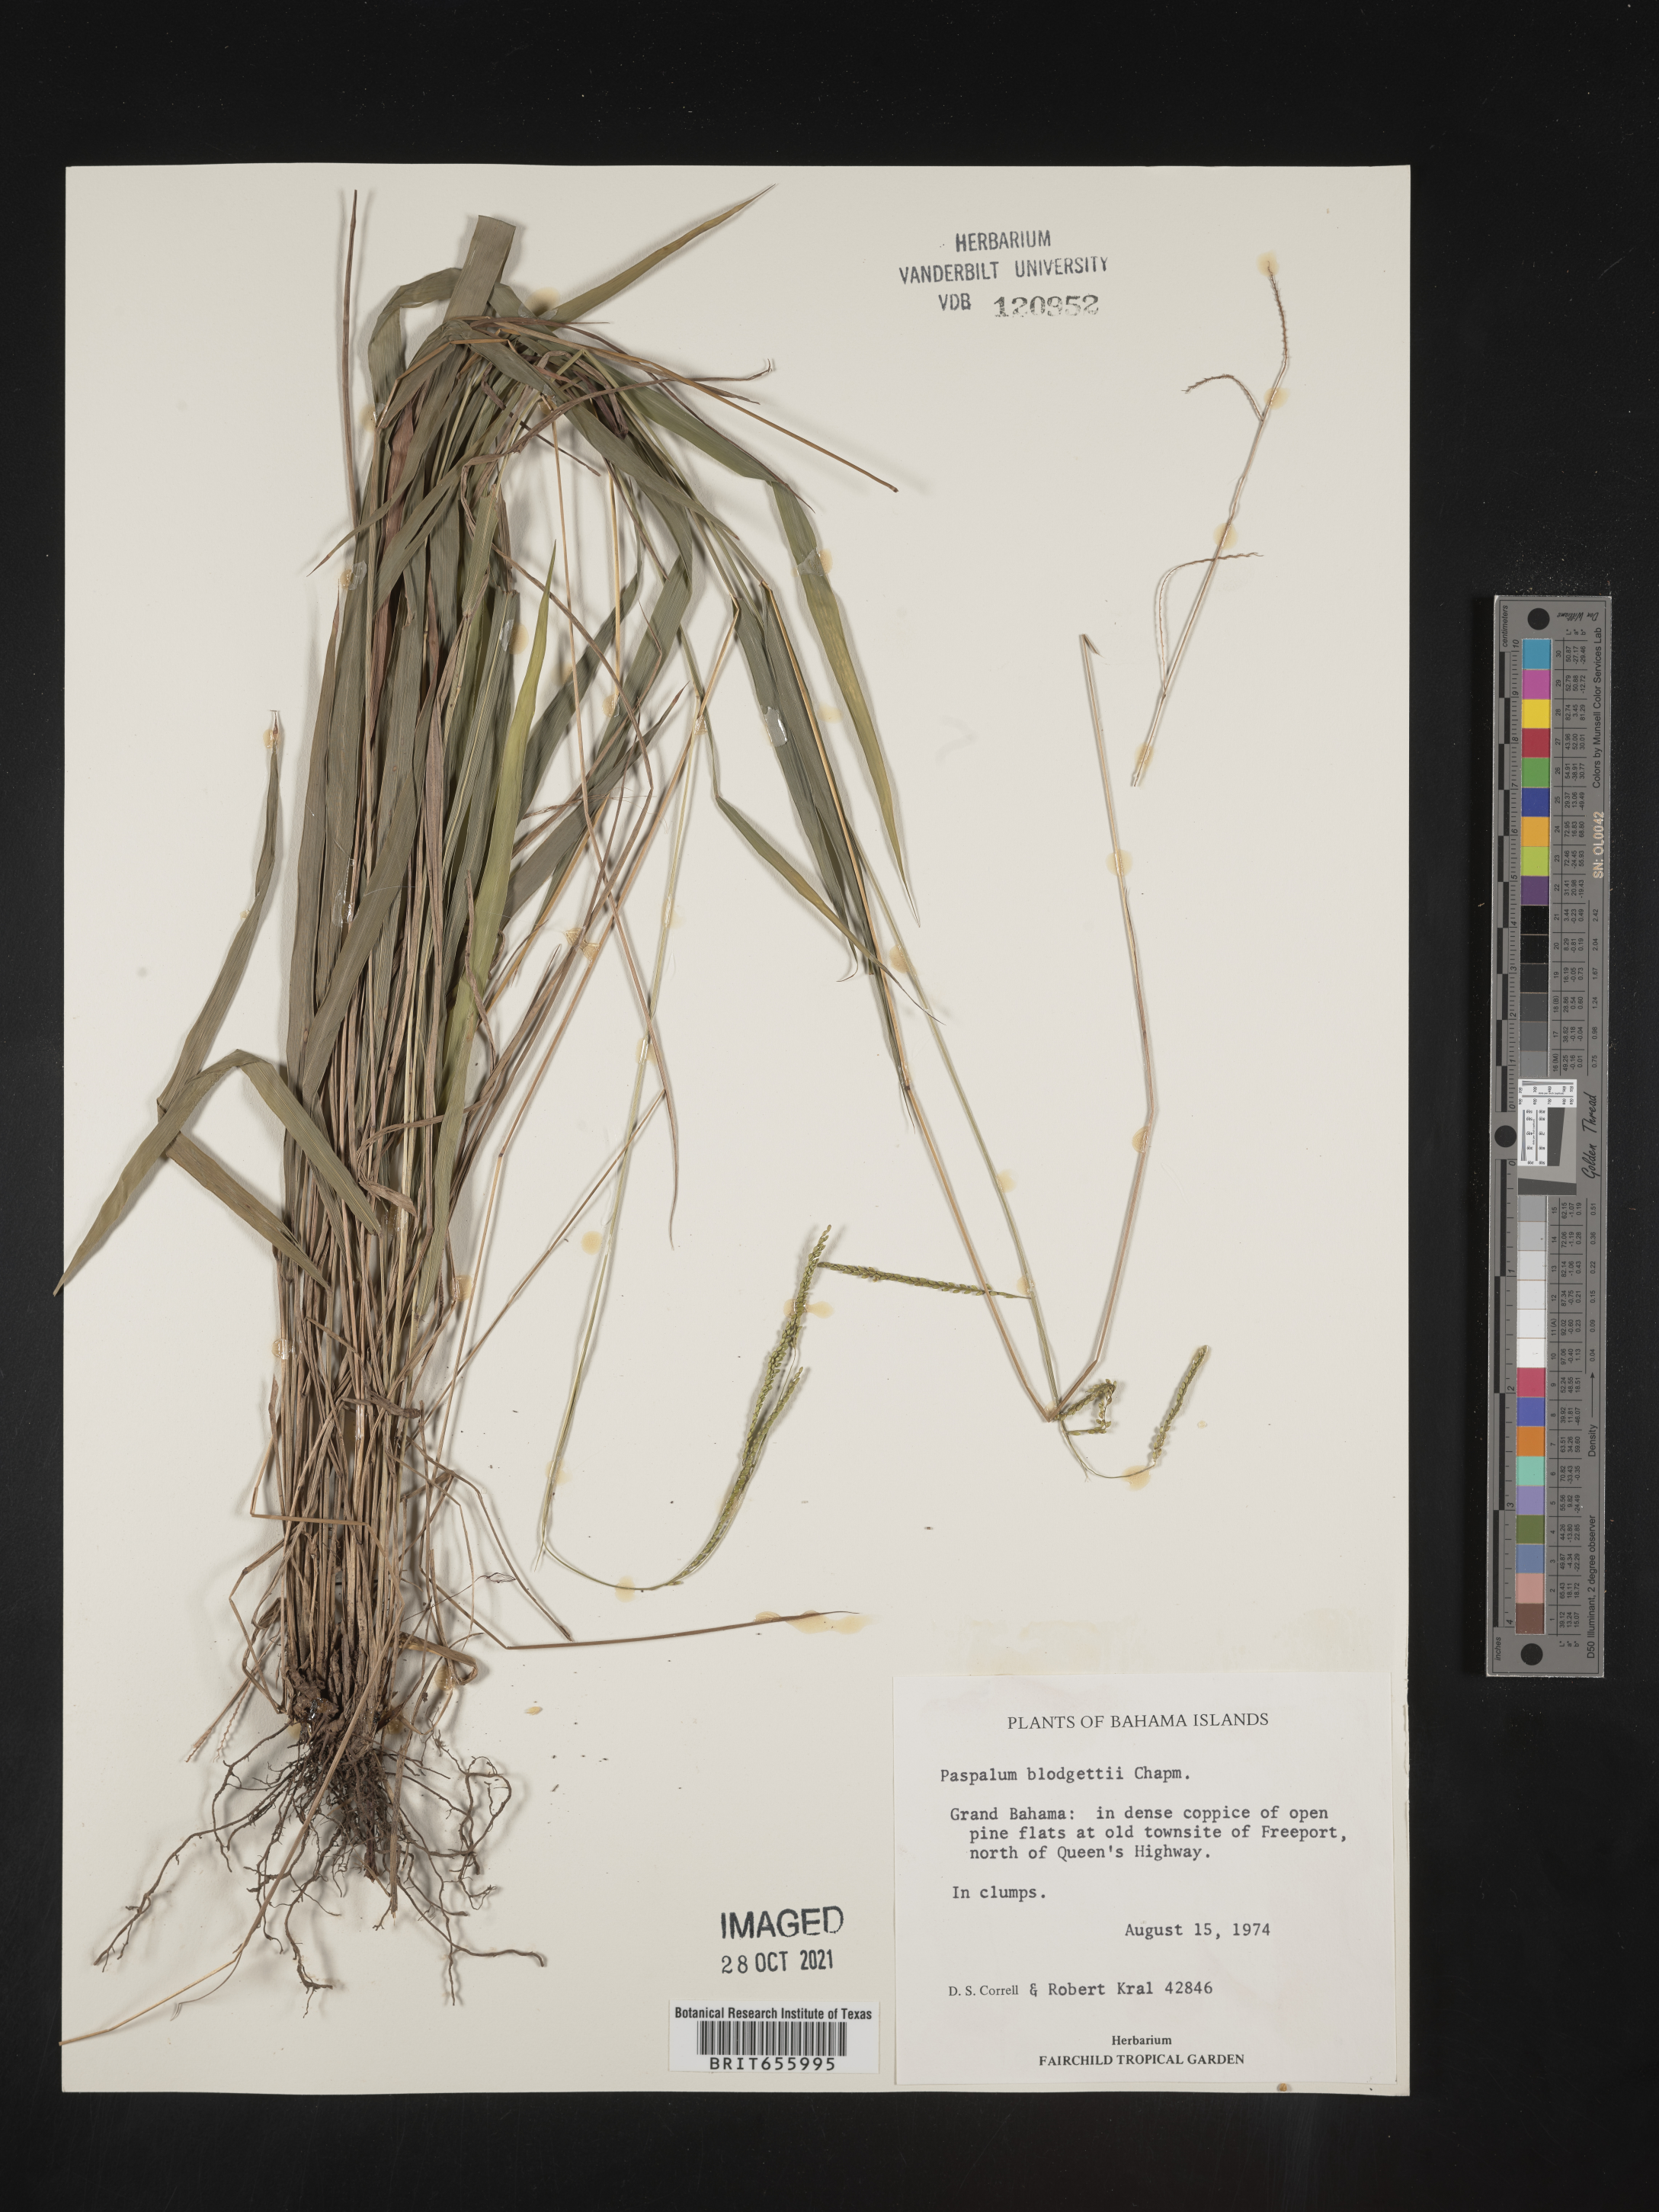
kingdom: Plantae
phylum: Tracheophyta
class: Liliopsida
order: Poales
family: Poaceae
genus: Paspalum
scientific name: Paspalum
